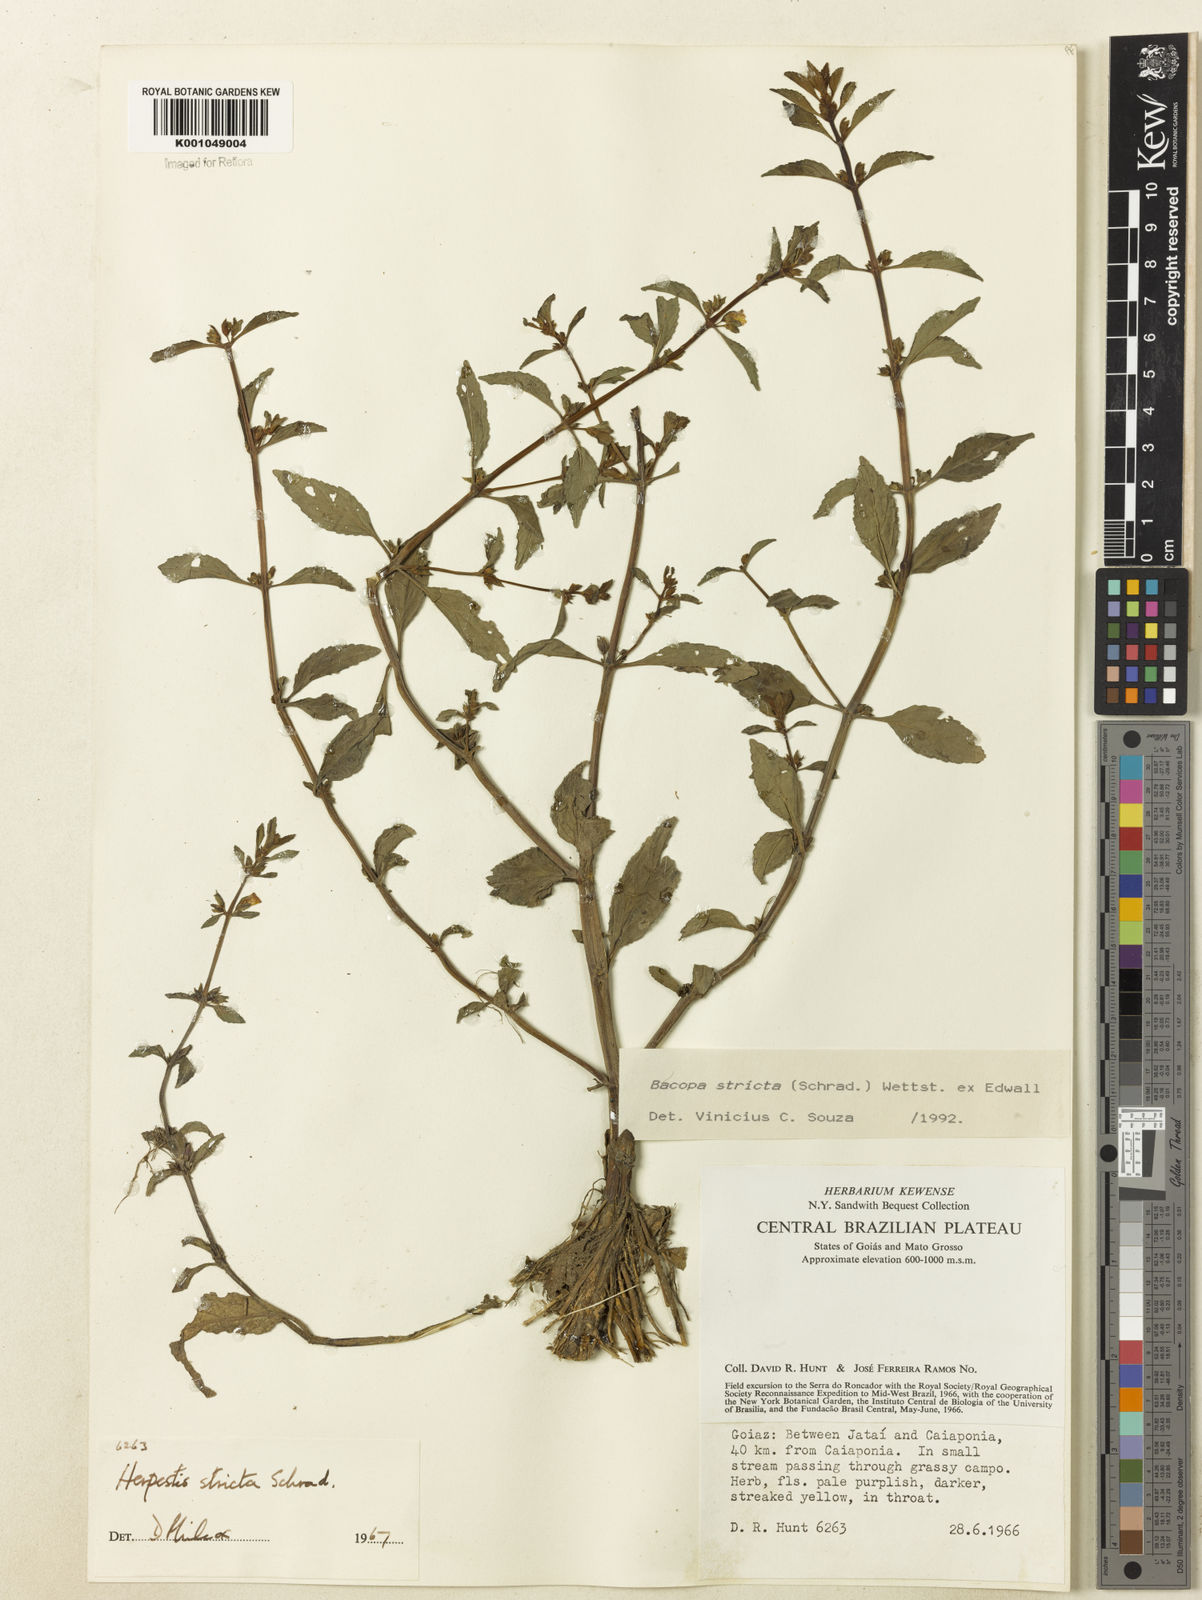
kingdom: Plantae
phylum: Tracheophyta
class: Magnoliopsida
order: Lamiales
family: Plantaginaceae
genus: Bacopa
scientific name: Bacopa stricta
